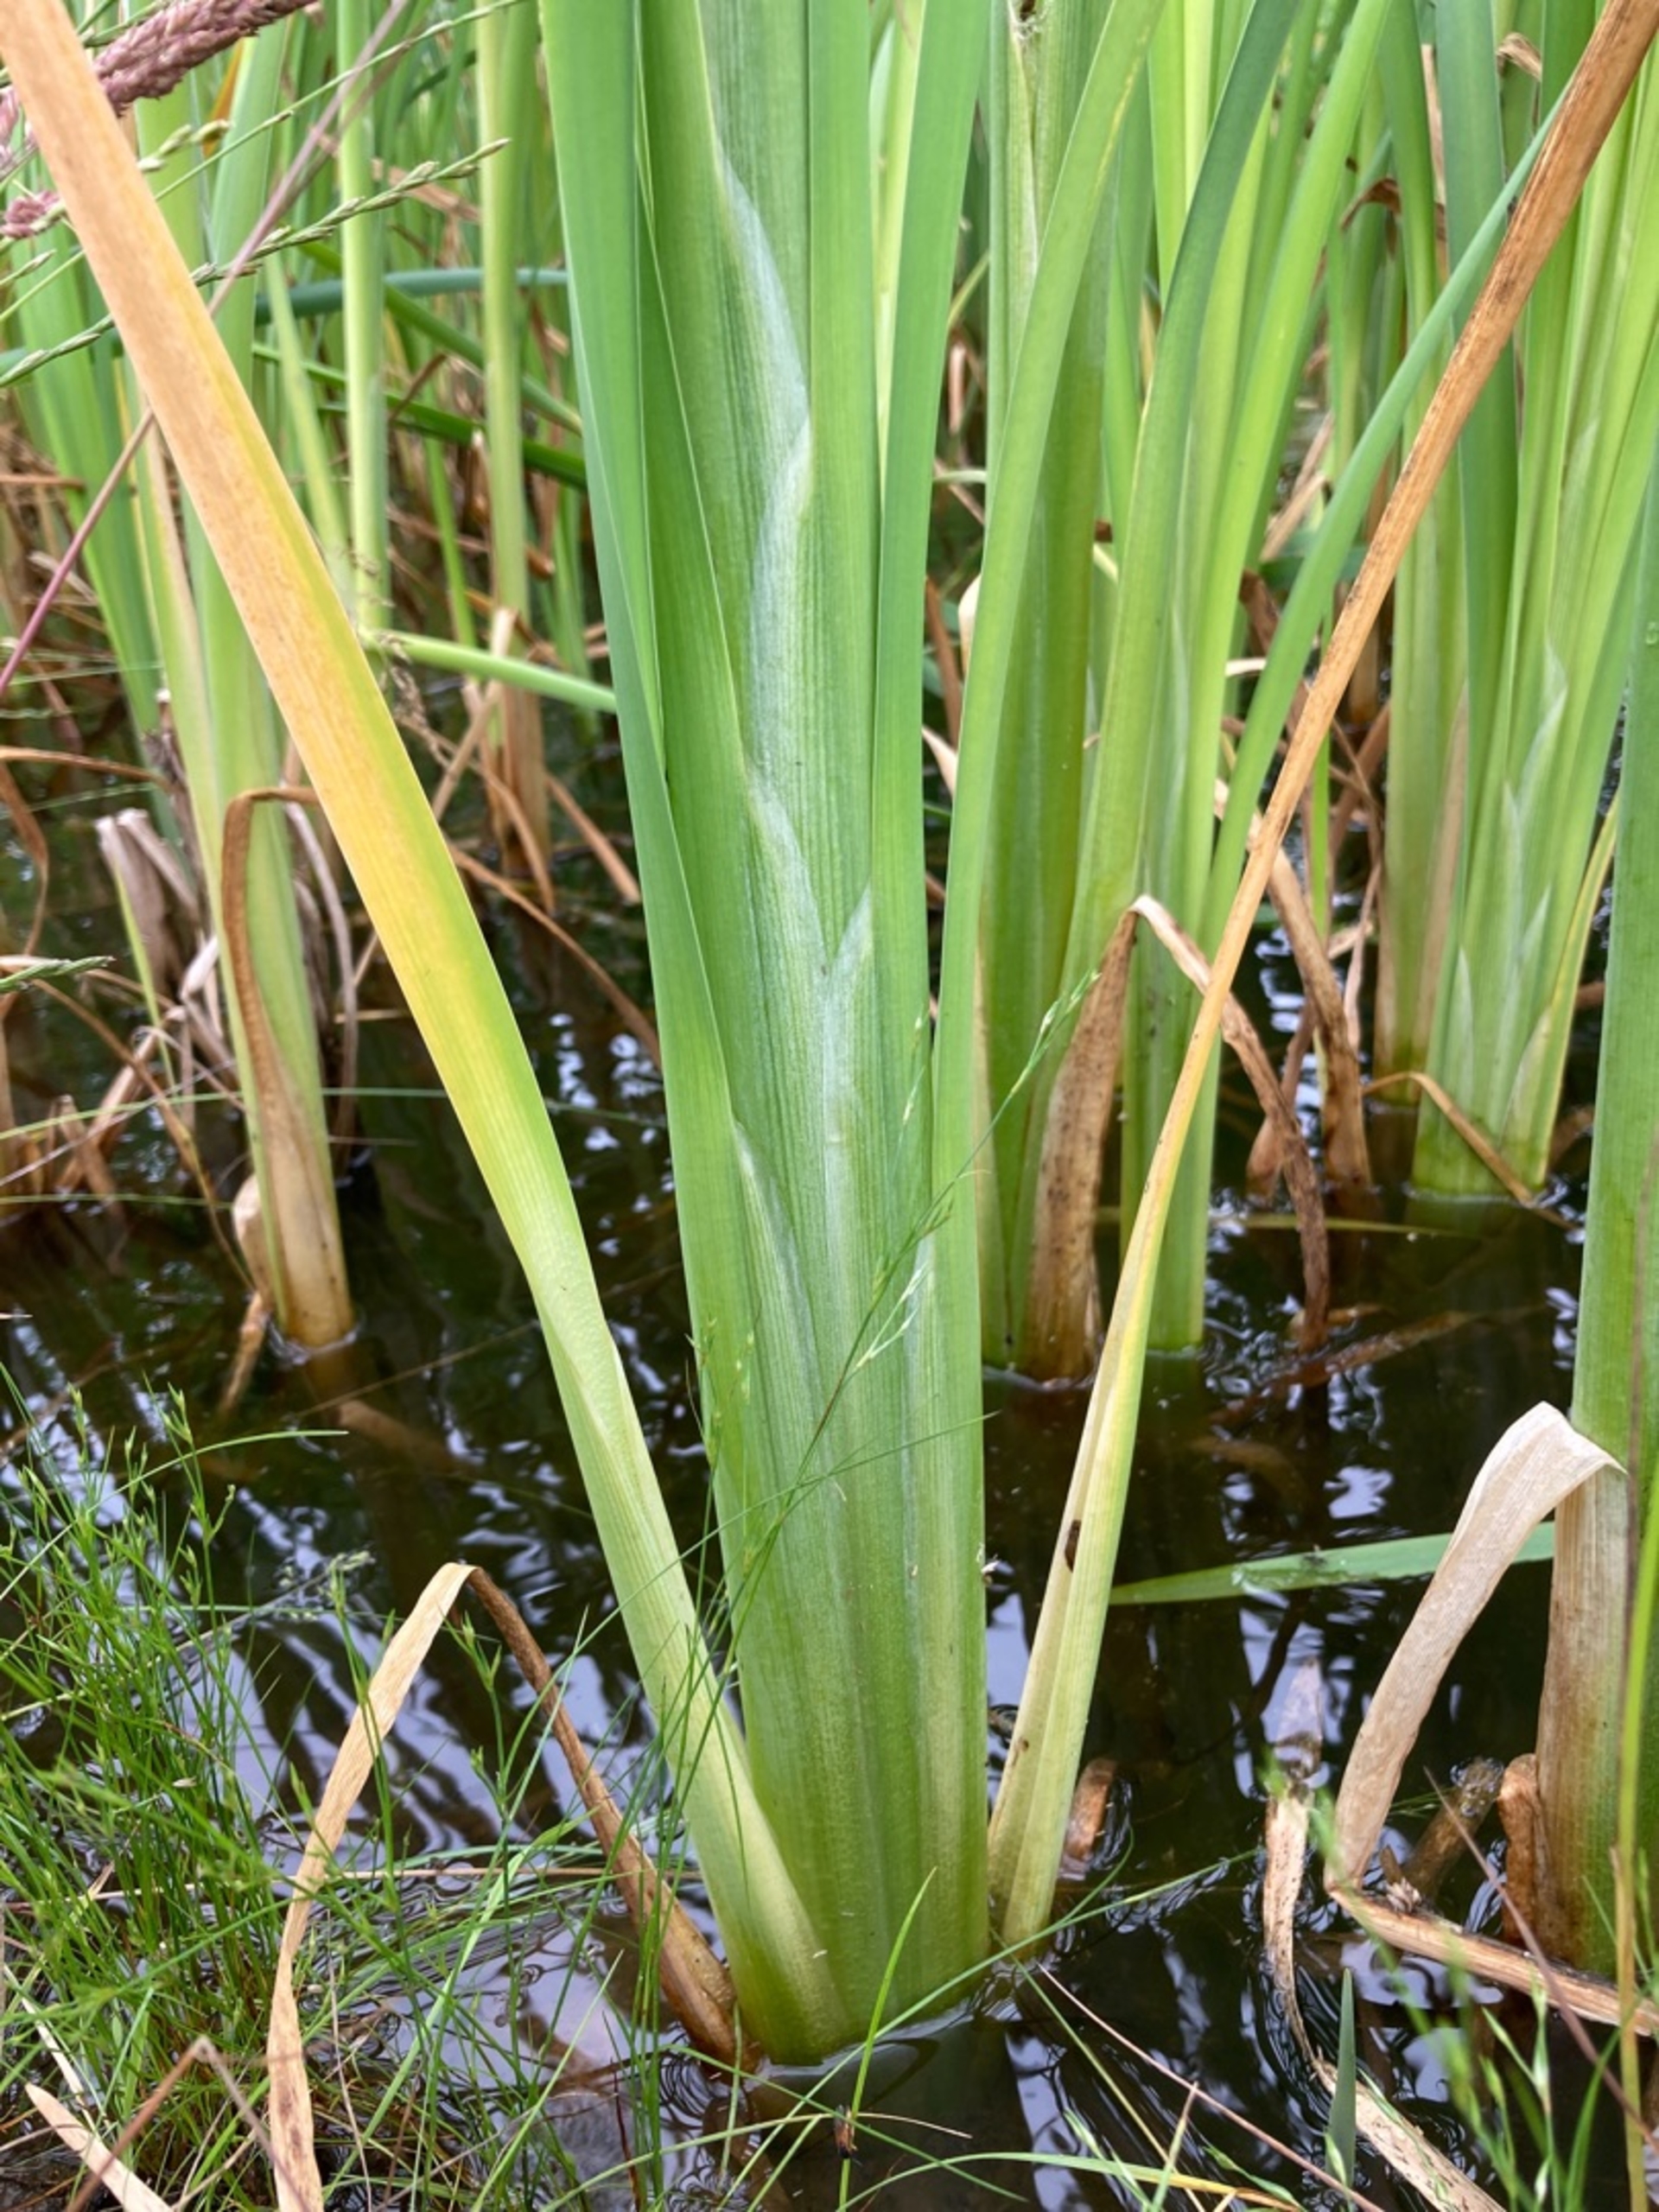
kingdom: Plantae
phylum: Tracheophyta
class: Liliopsida
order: Poales
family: Typhaceae
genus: Typha
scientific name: Typha latifolia
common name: Bredbladet dunhammer
